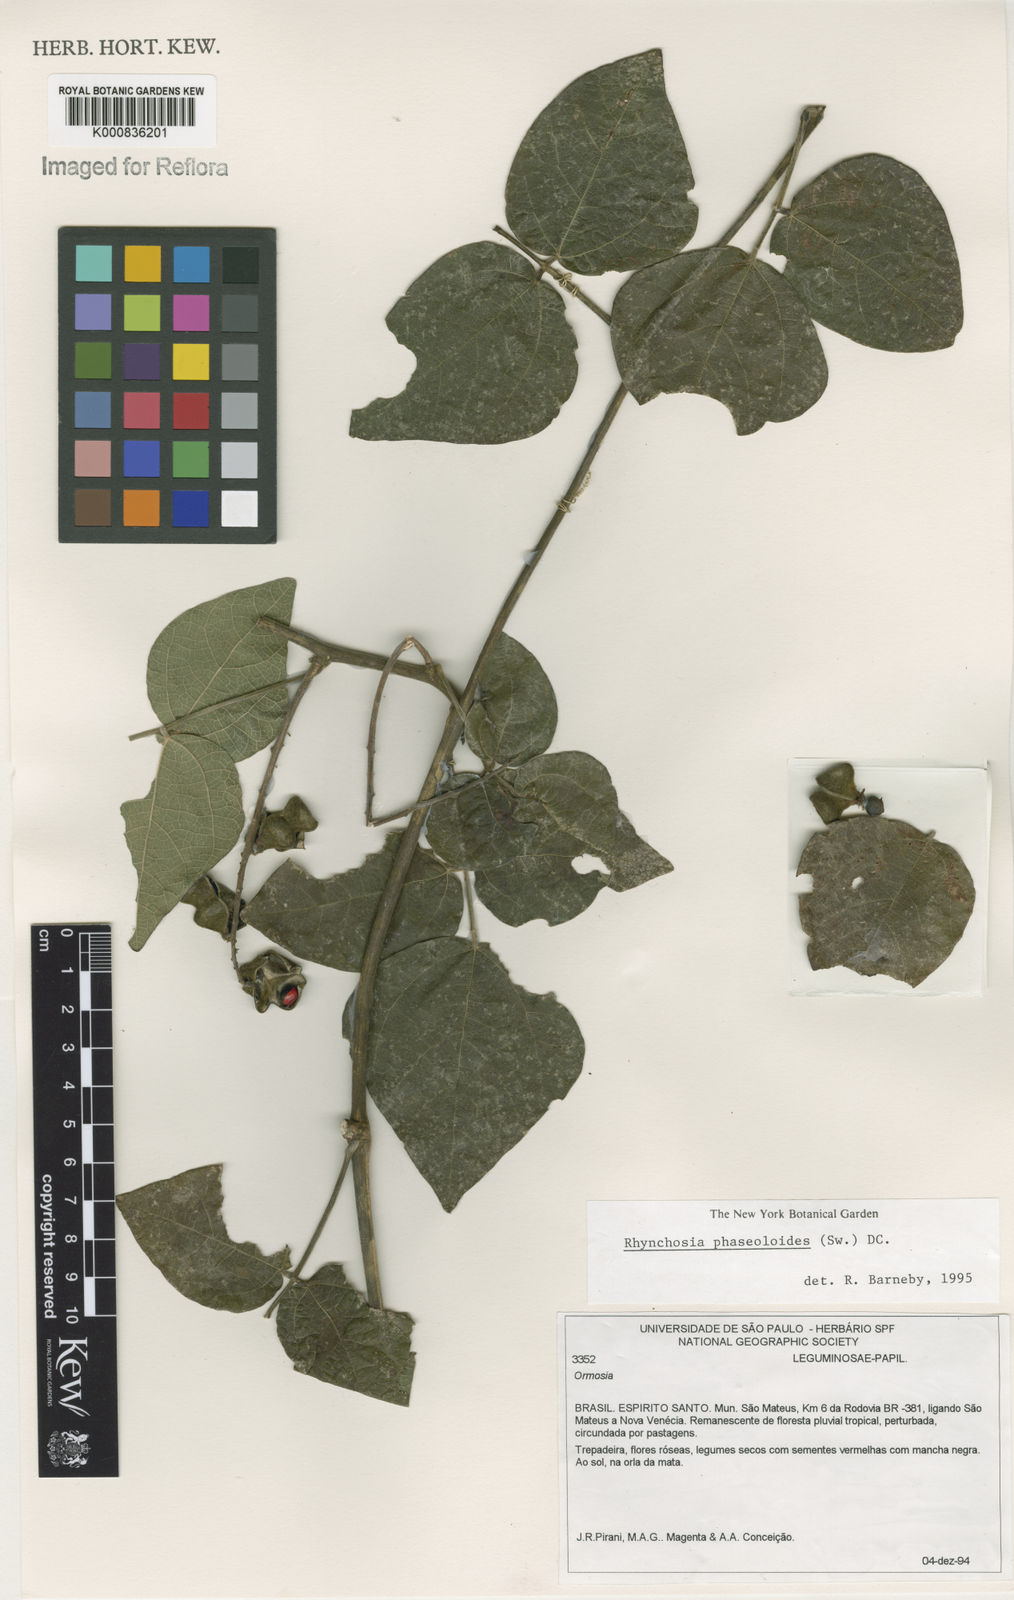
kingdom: Plantae
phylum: Tracheophyta
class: Magnoliopsida
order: Fabales
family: Fabaceae
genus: Rhynchosia
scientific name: Rhynchosia phaseoloides
